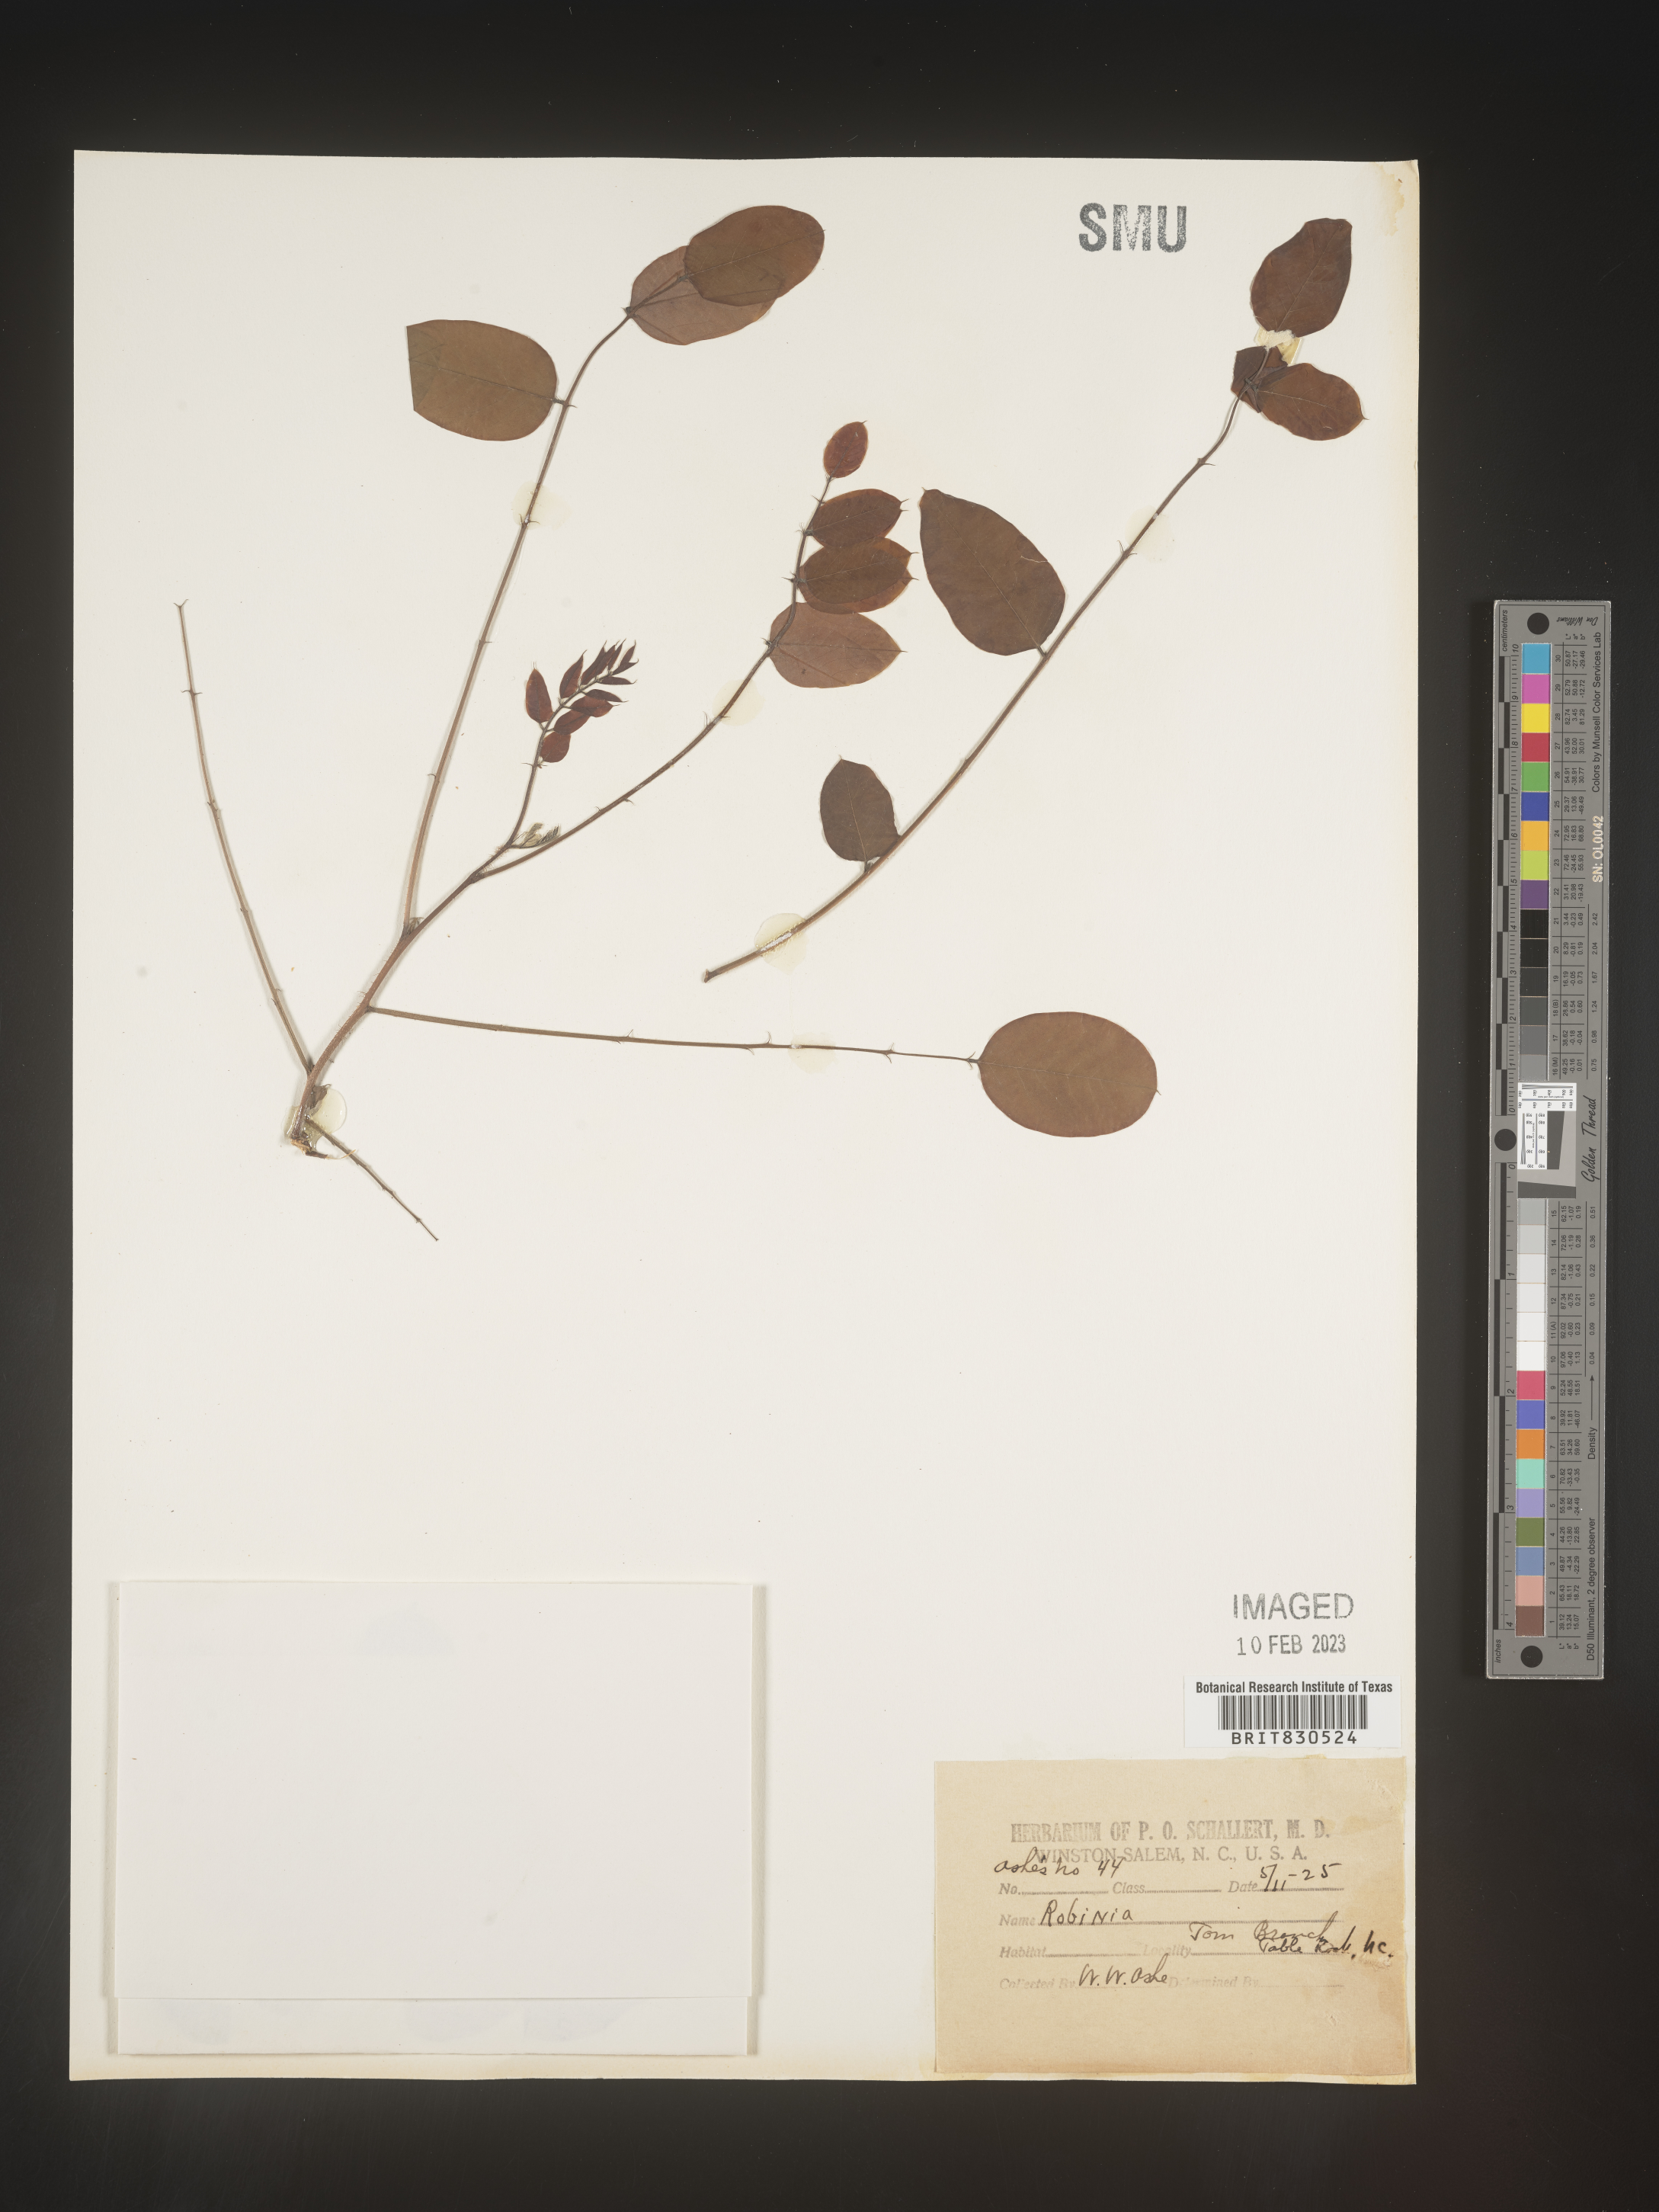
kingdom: Plantae
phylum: Tracheophyta
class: Magnoliopsida
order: Fabales
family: Fabaceae
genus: Robinia
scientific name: Robinia
